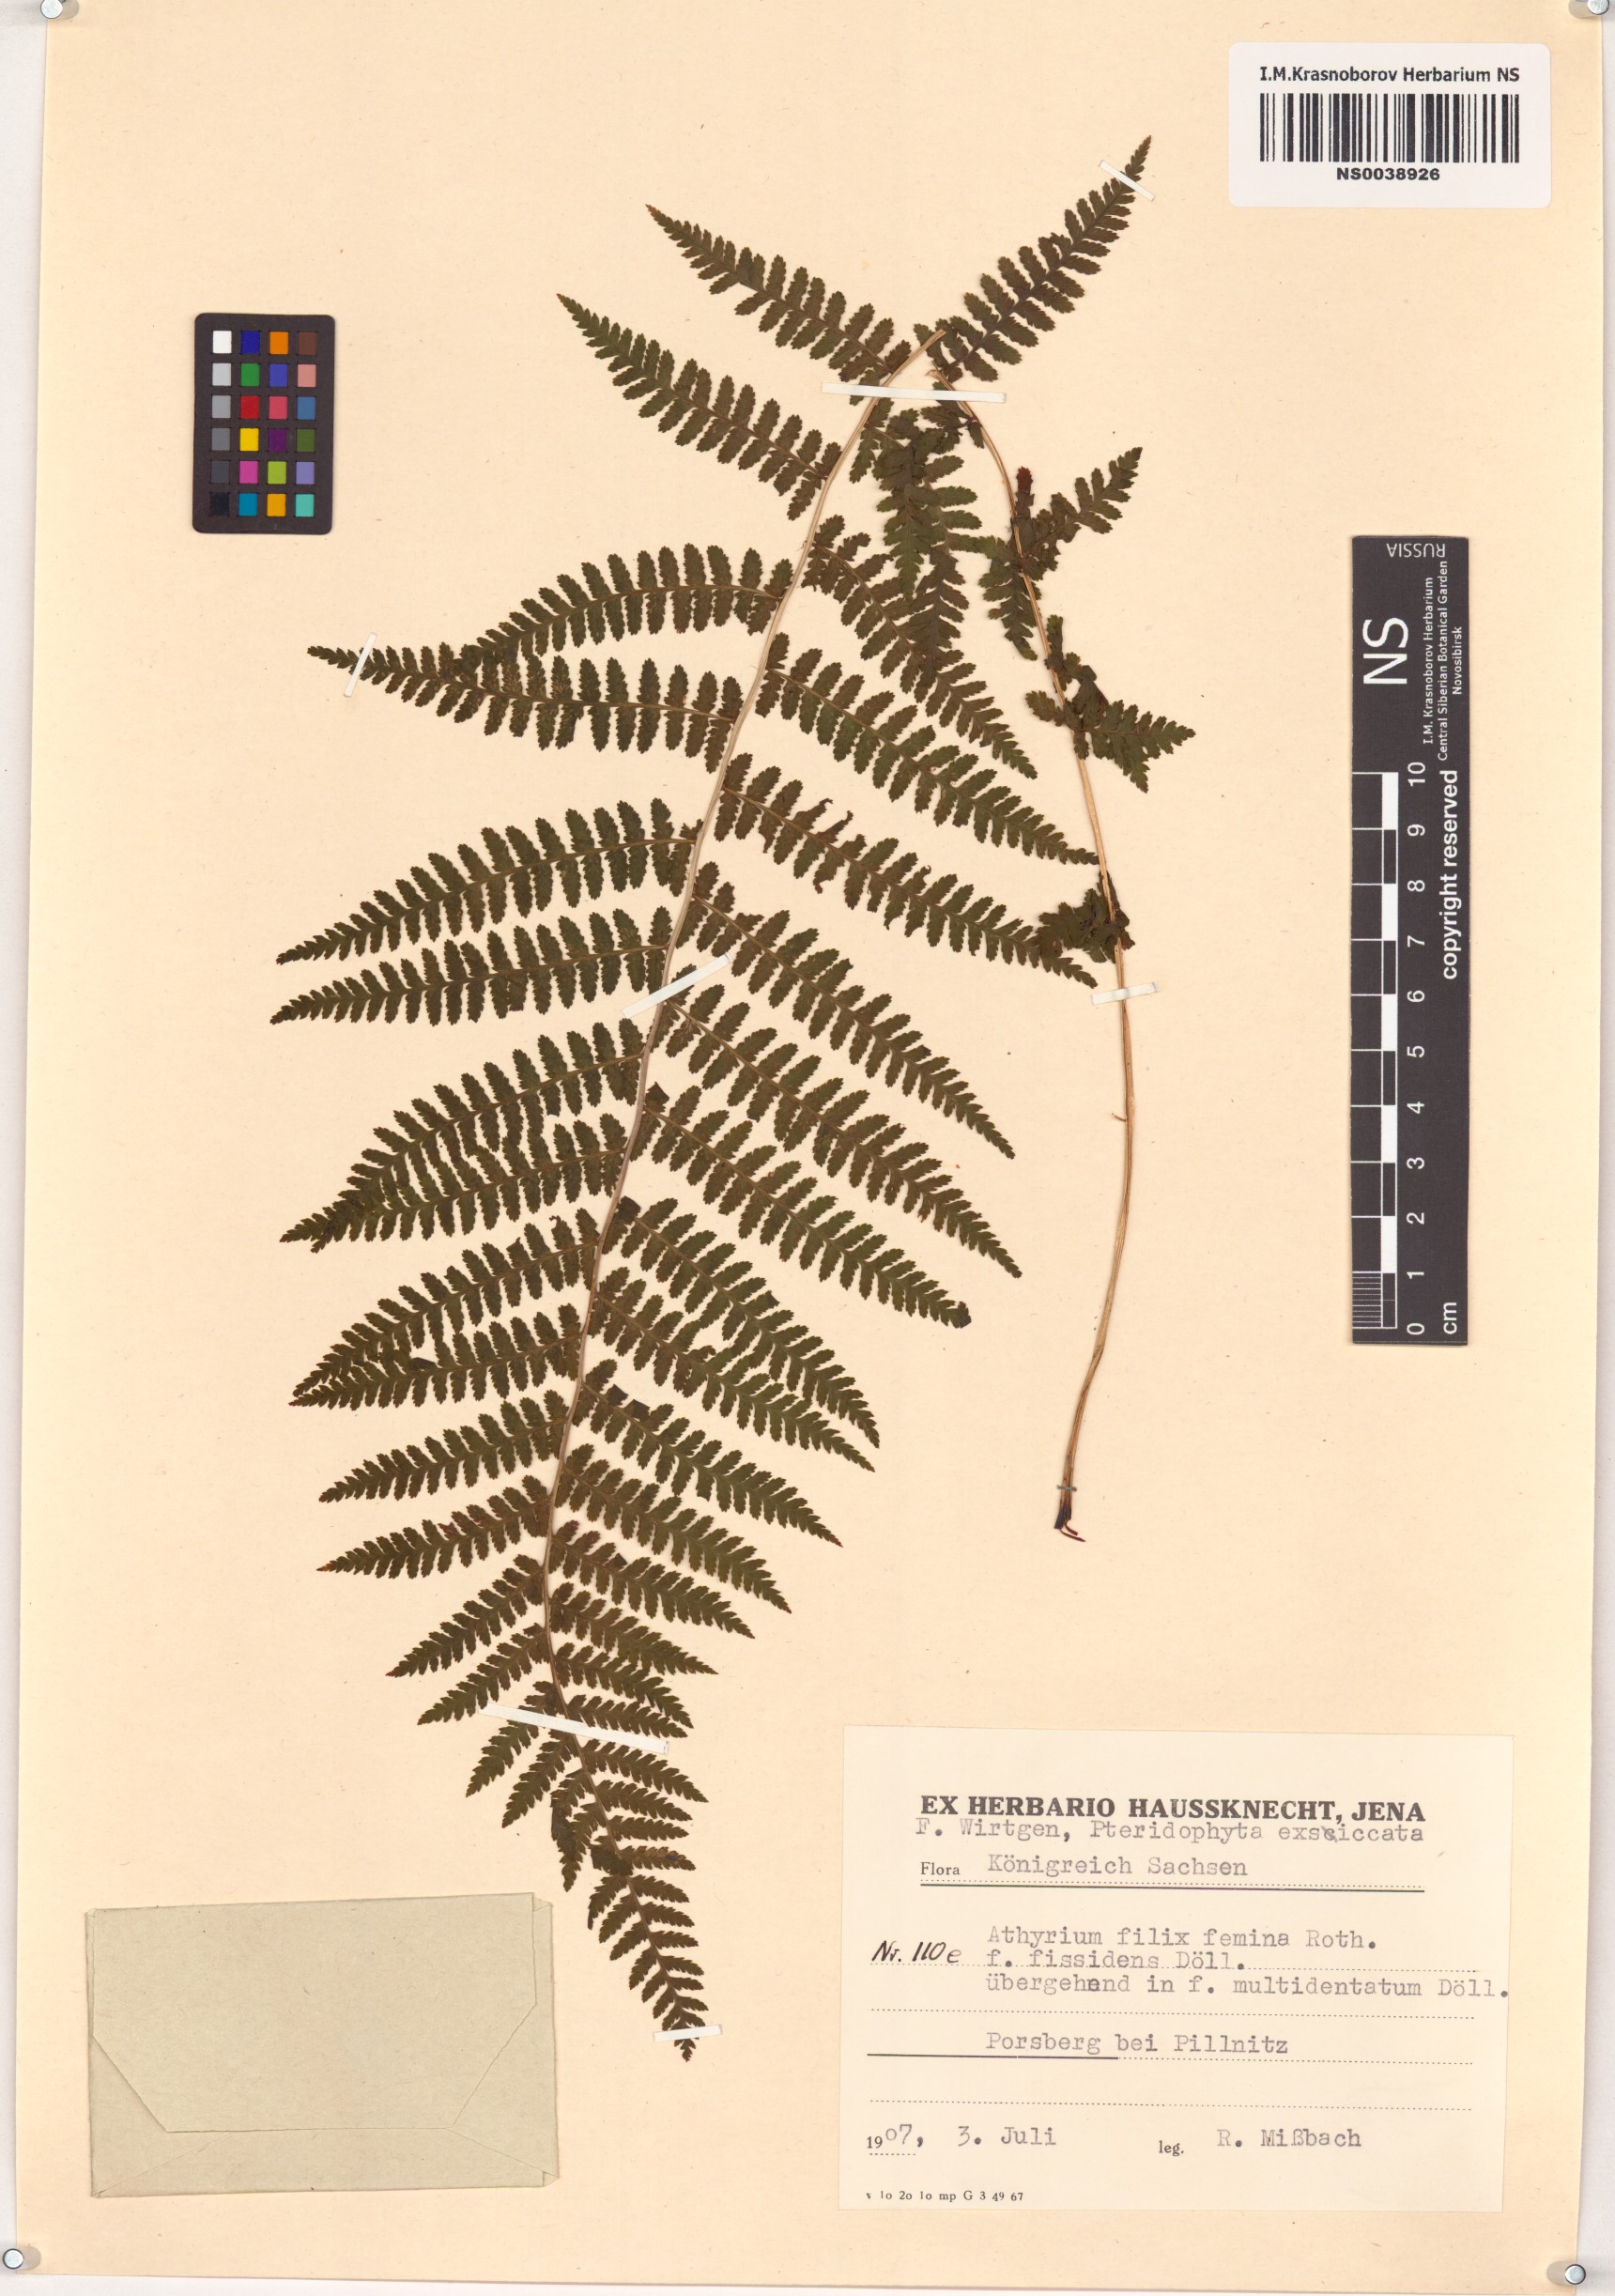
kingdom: Plantae
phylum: Tracheophyta
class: Polypodiopsida
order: Polypodiales
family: Athyriaceae
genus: Athyrium
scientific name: Athyrium filix-femina
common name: Lady fern
